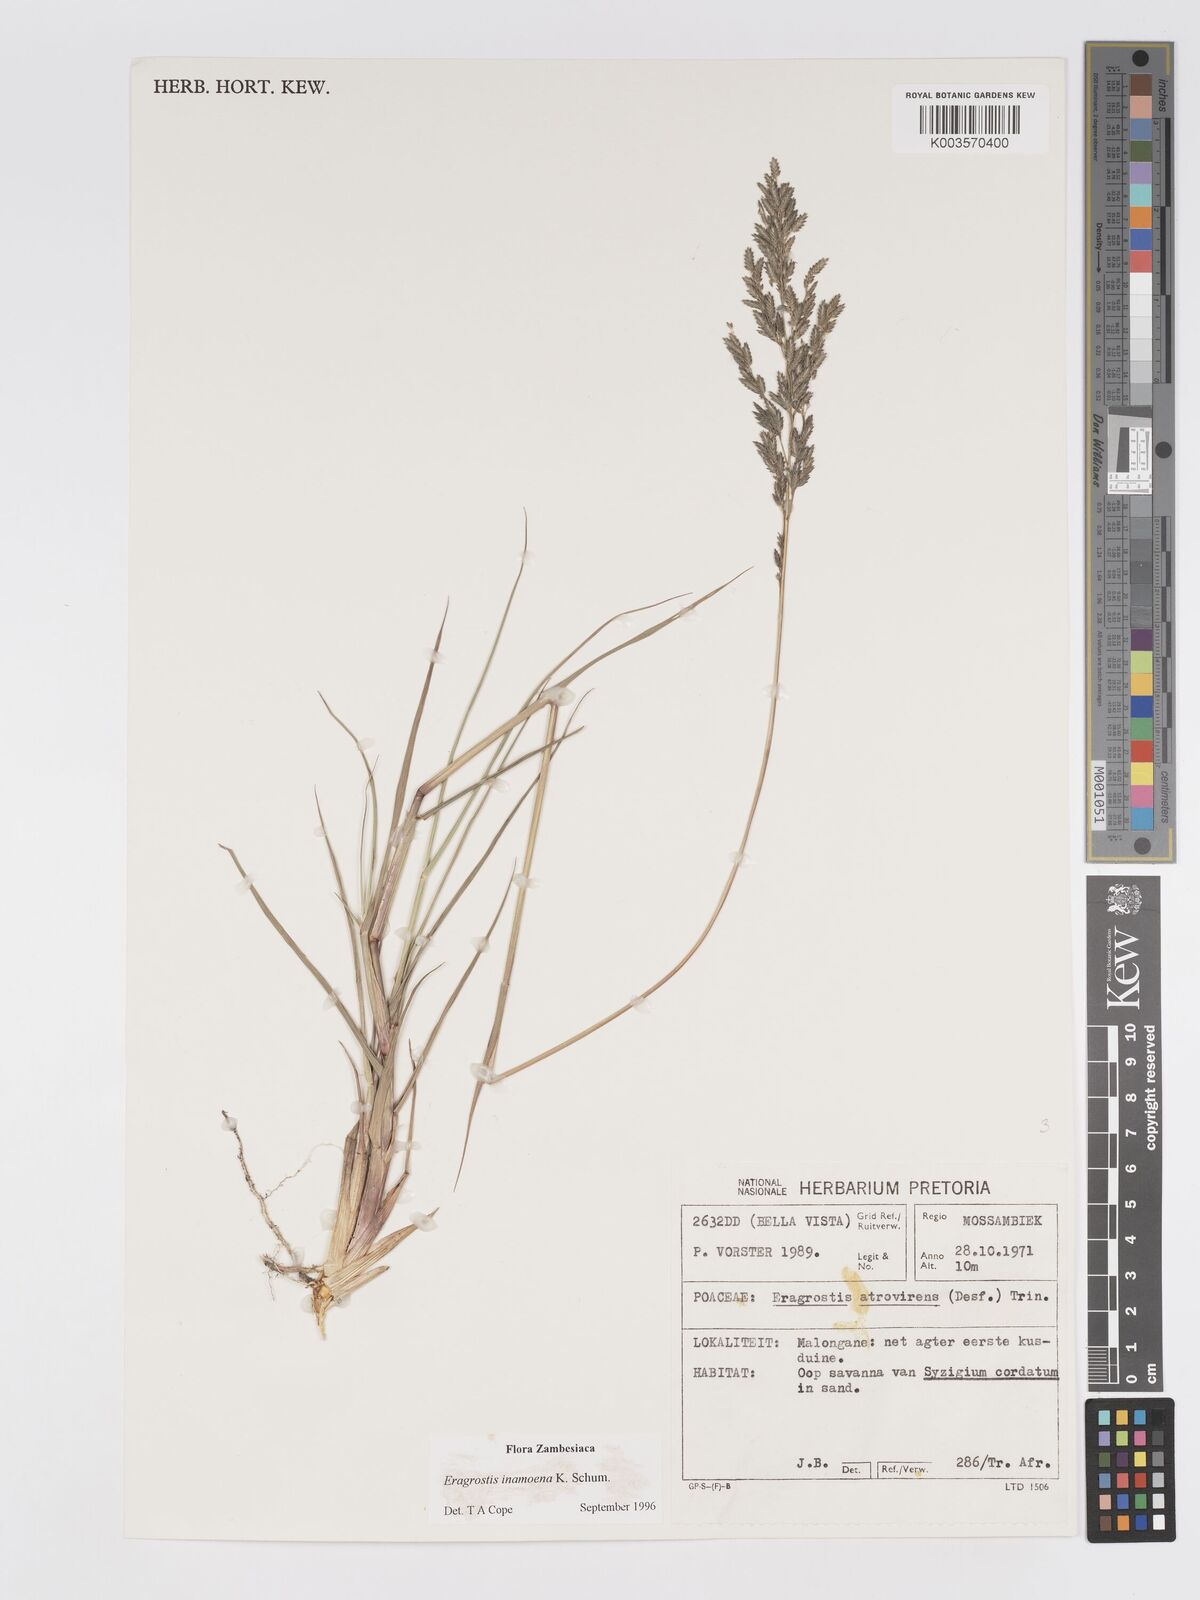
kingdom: Plantae
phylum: Tracheophyta
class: Liliopsida
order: Poales
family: Poaceae
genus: Eragrostis
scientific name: Eragrostis inamoena
